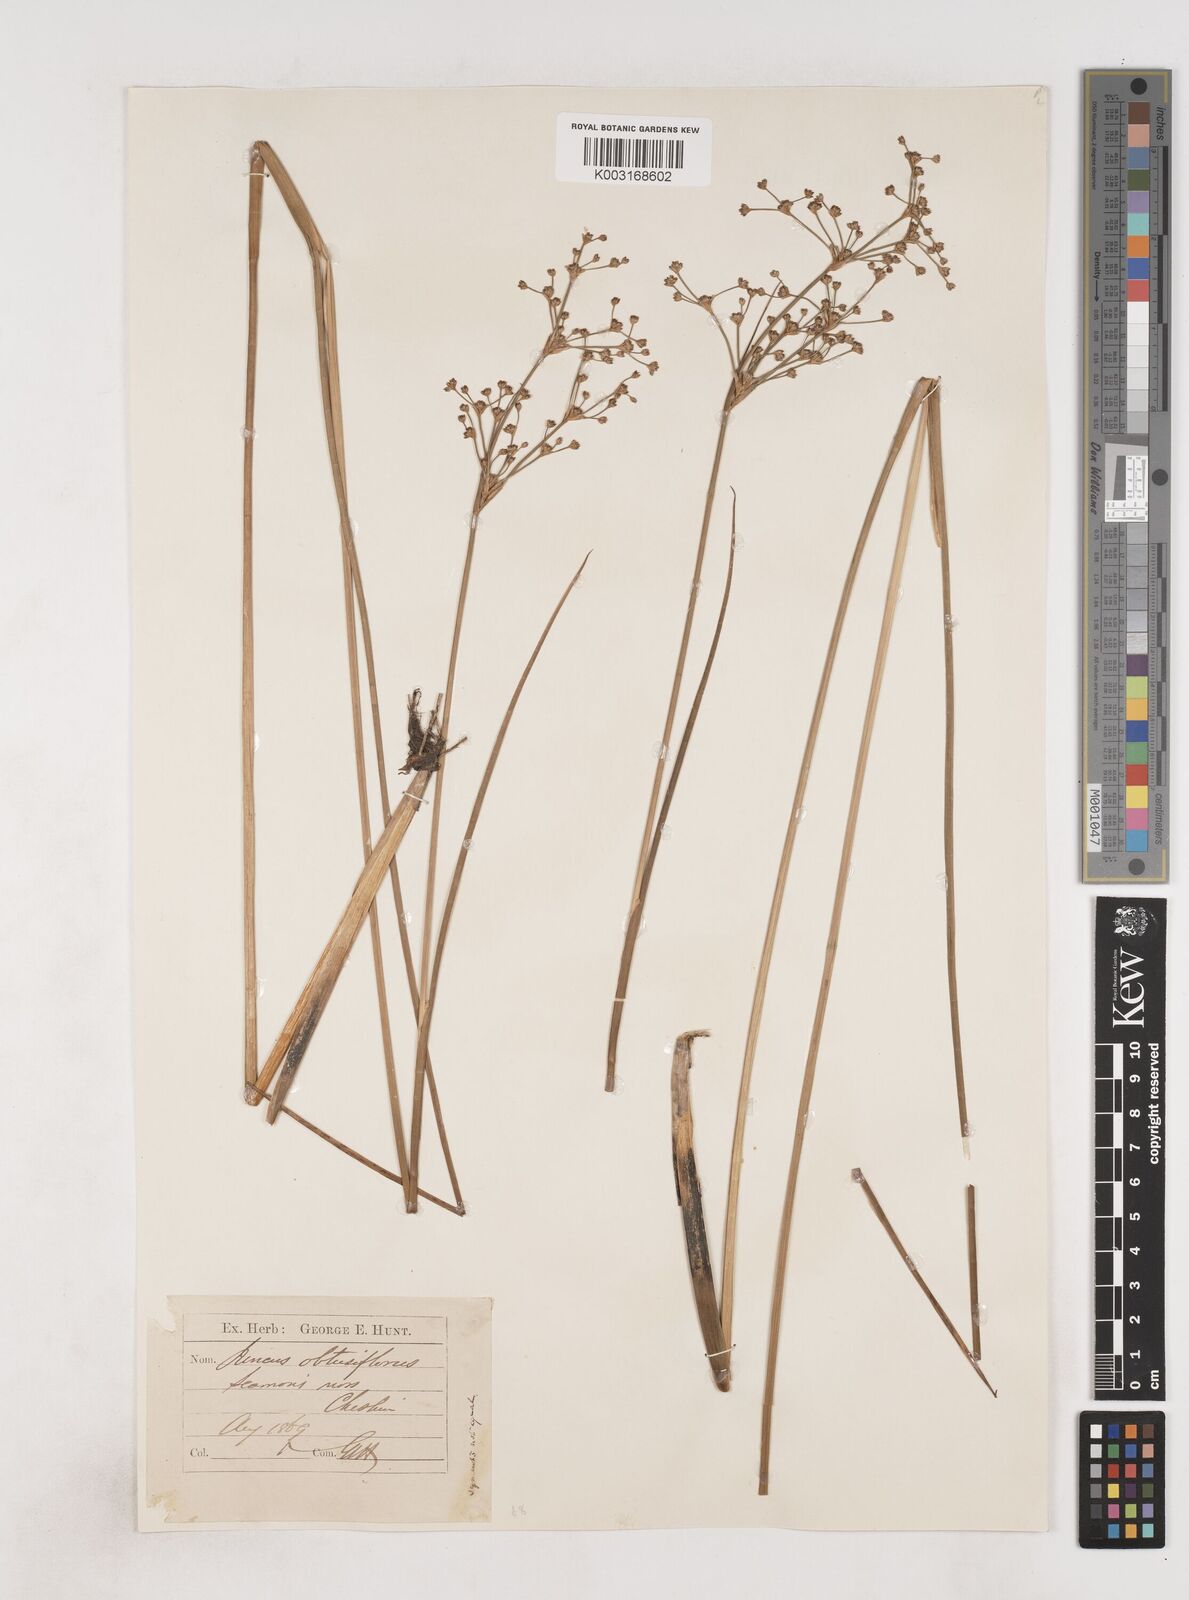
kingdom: Plantae
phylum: Tracheophyta
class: Liliopsida
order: Poales
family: Juncaceae
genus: Juncus
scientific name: Juncus subnodulosus
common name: Blunt-flowered rush
